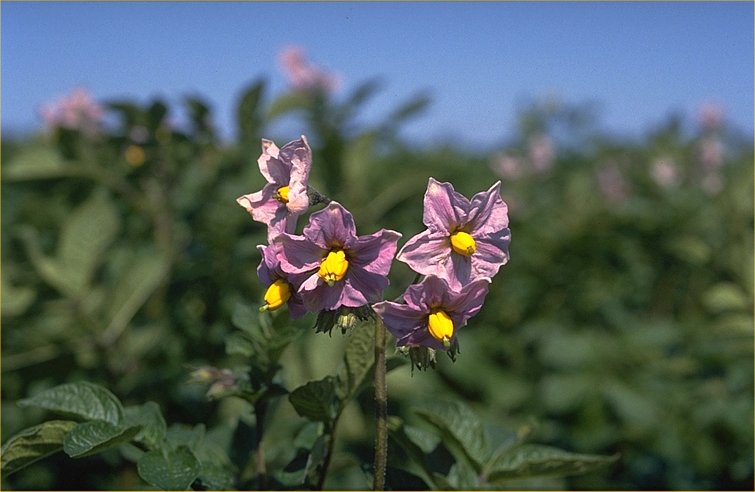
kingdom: Plantae
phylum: Tracheophyta
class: Magnoliopsida
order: Solanales
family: Solanaceae
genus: Solanum
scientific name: Solanum tuberosum
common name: Potato
